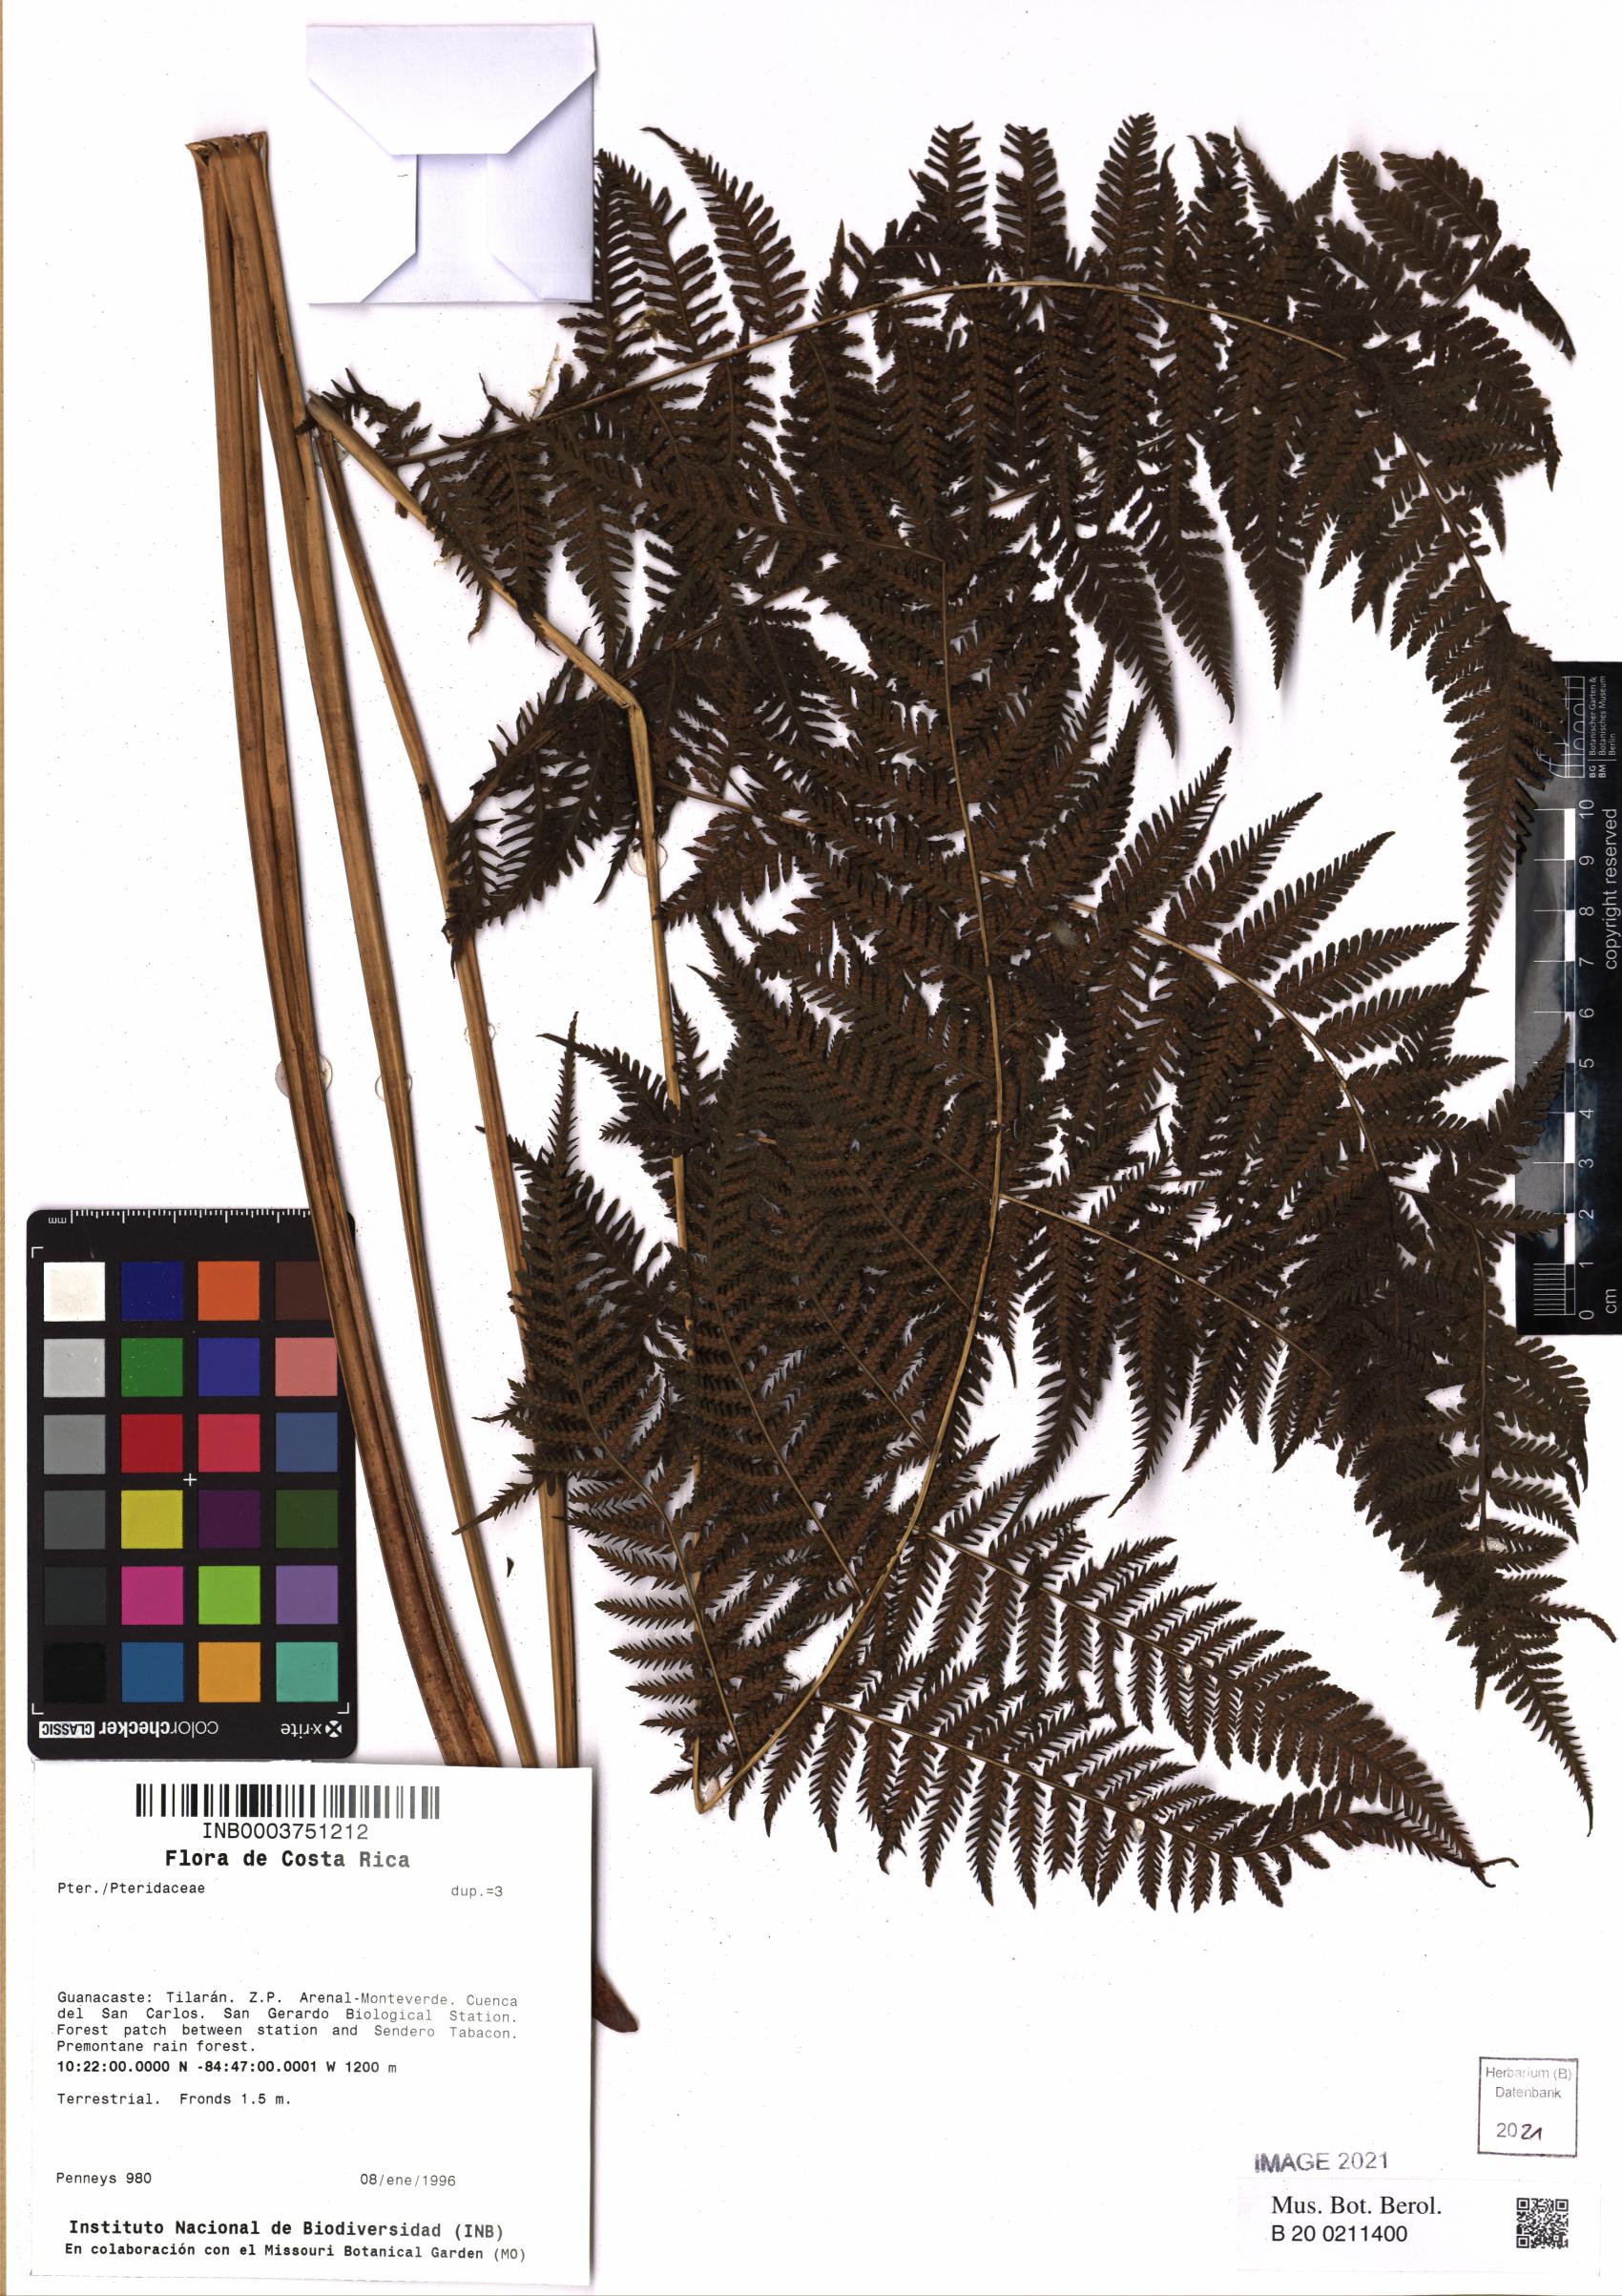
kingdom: Plantae
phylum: Tracheophyta
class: Polypodiopsida
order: Polypodiales
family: Pteridaceae
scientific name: Pteridaceae
